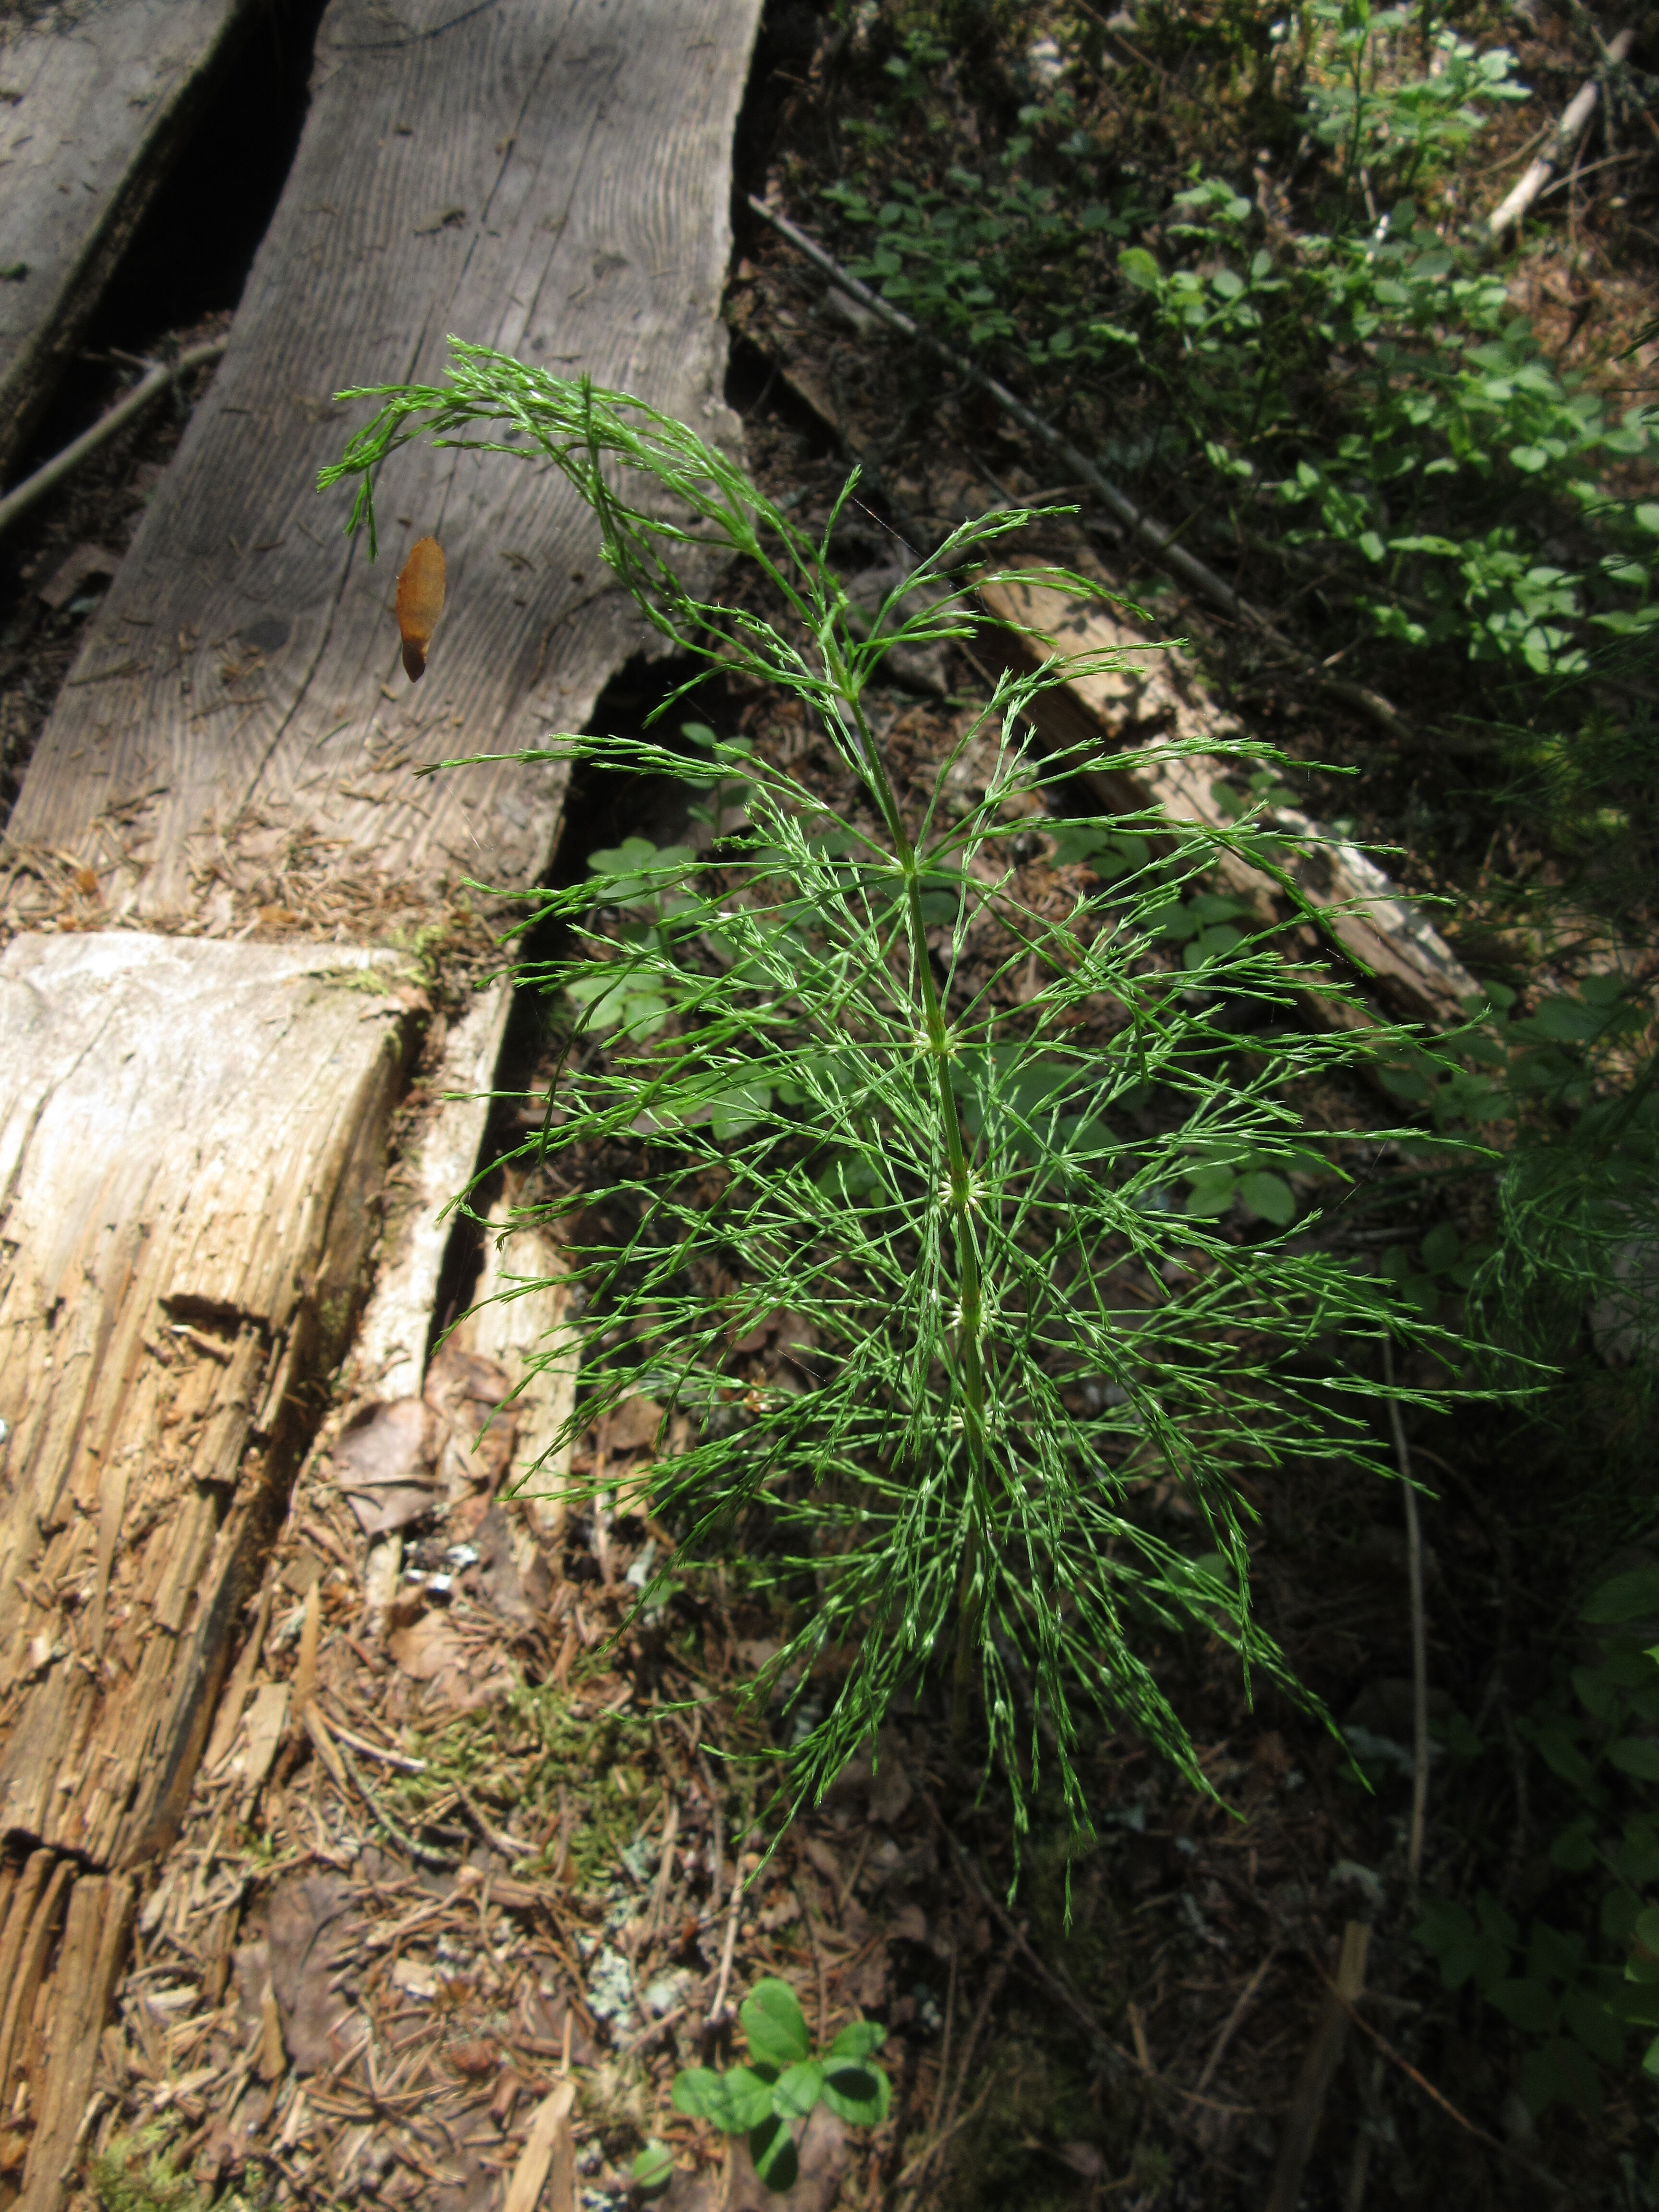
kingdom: Plantae
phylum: Tracheophyta
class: Polypodiopsida
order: Equisetales
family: Equisetaceae
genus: Equisetum
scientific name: Equisetum sylvaticum
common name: Wood horsetail
